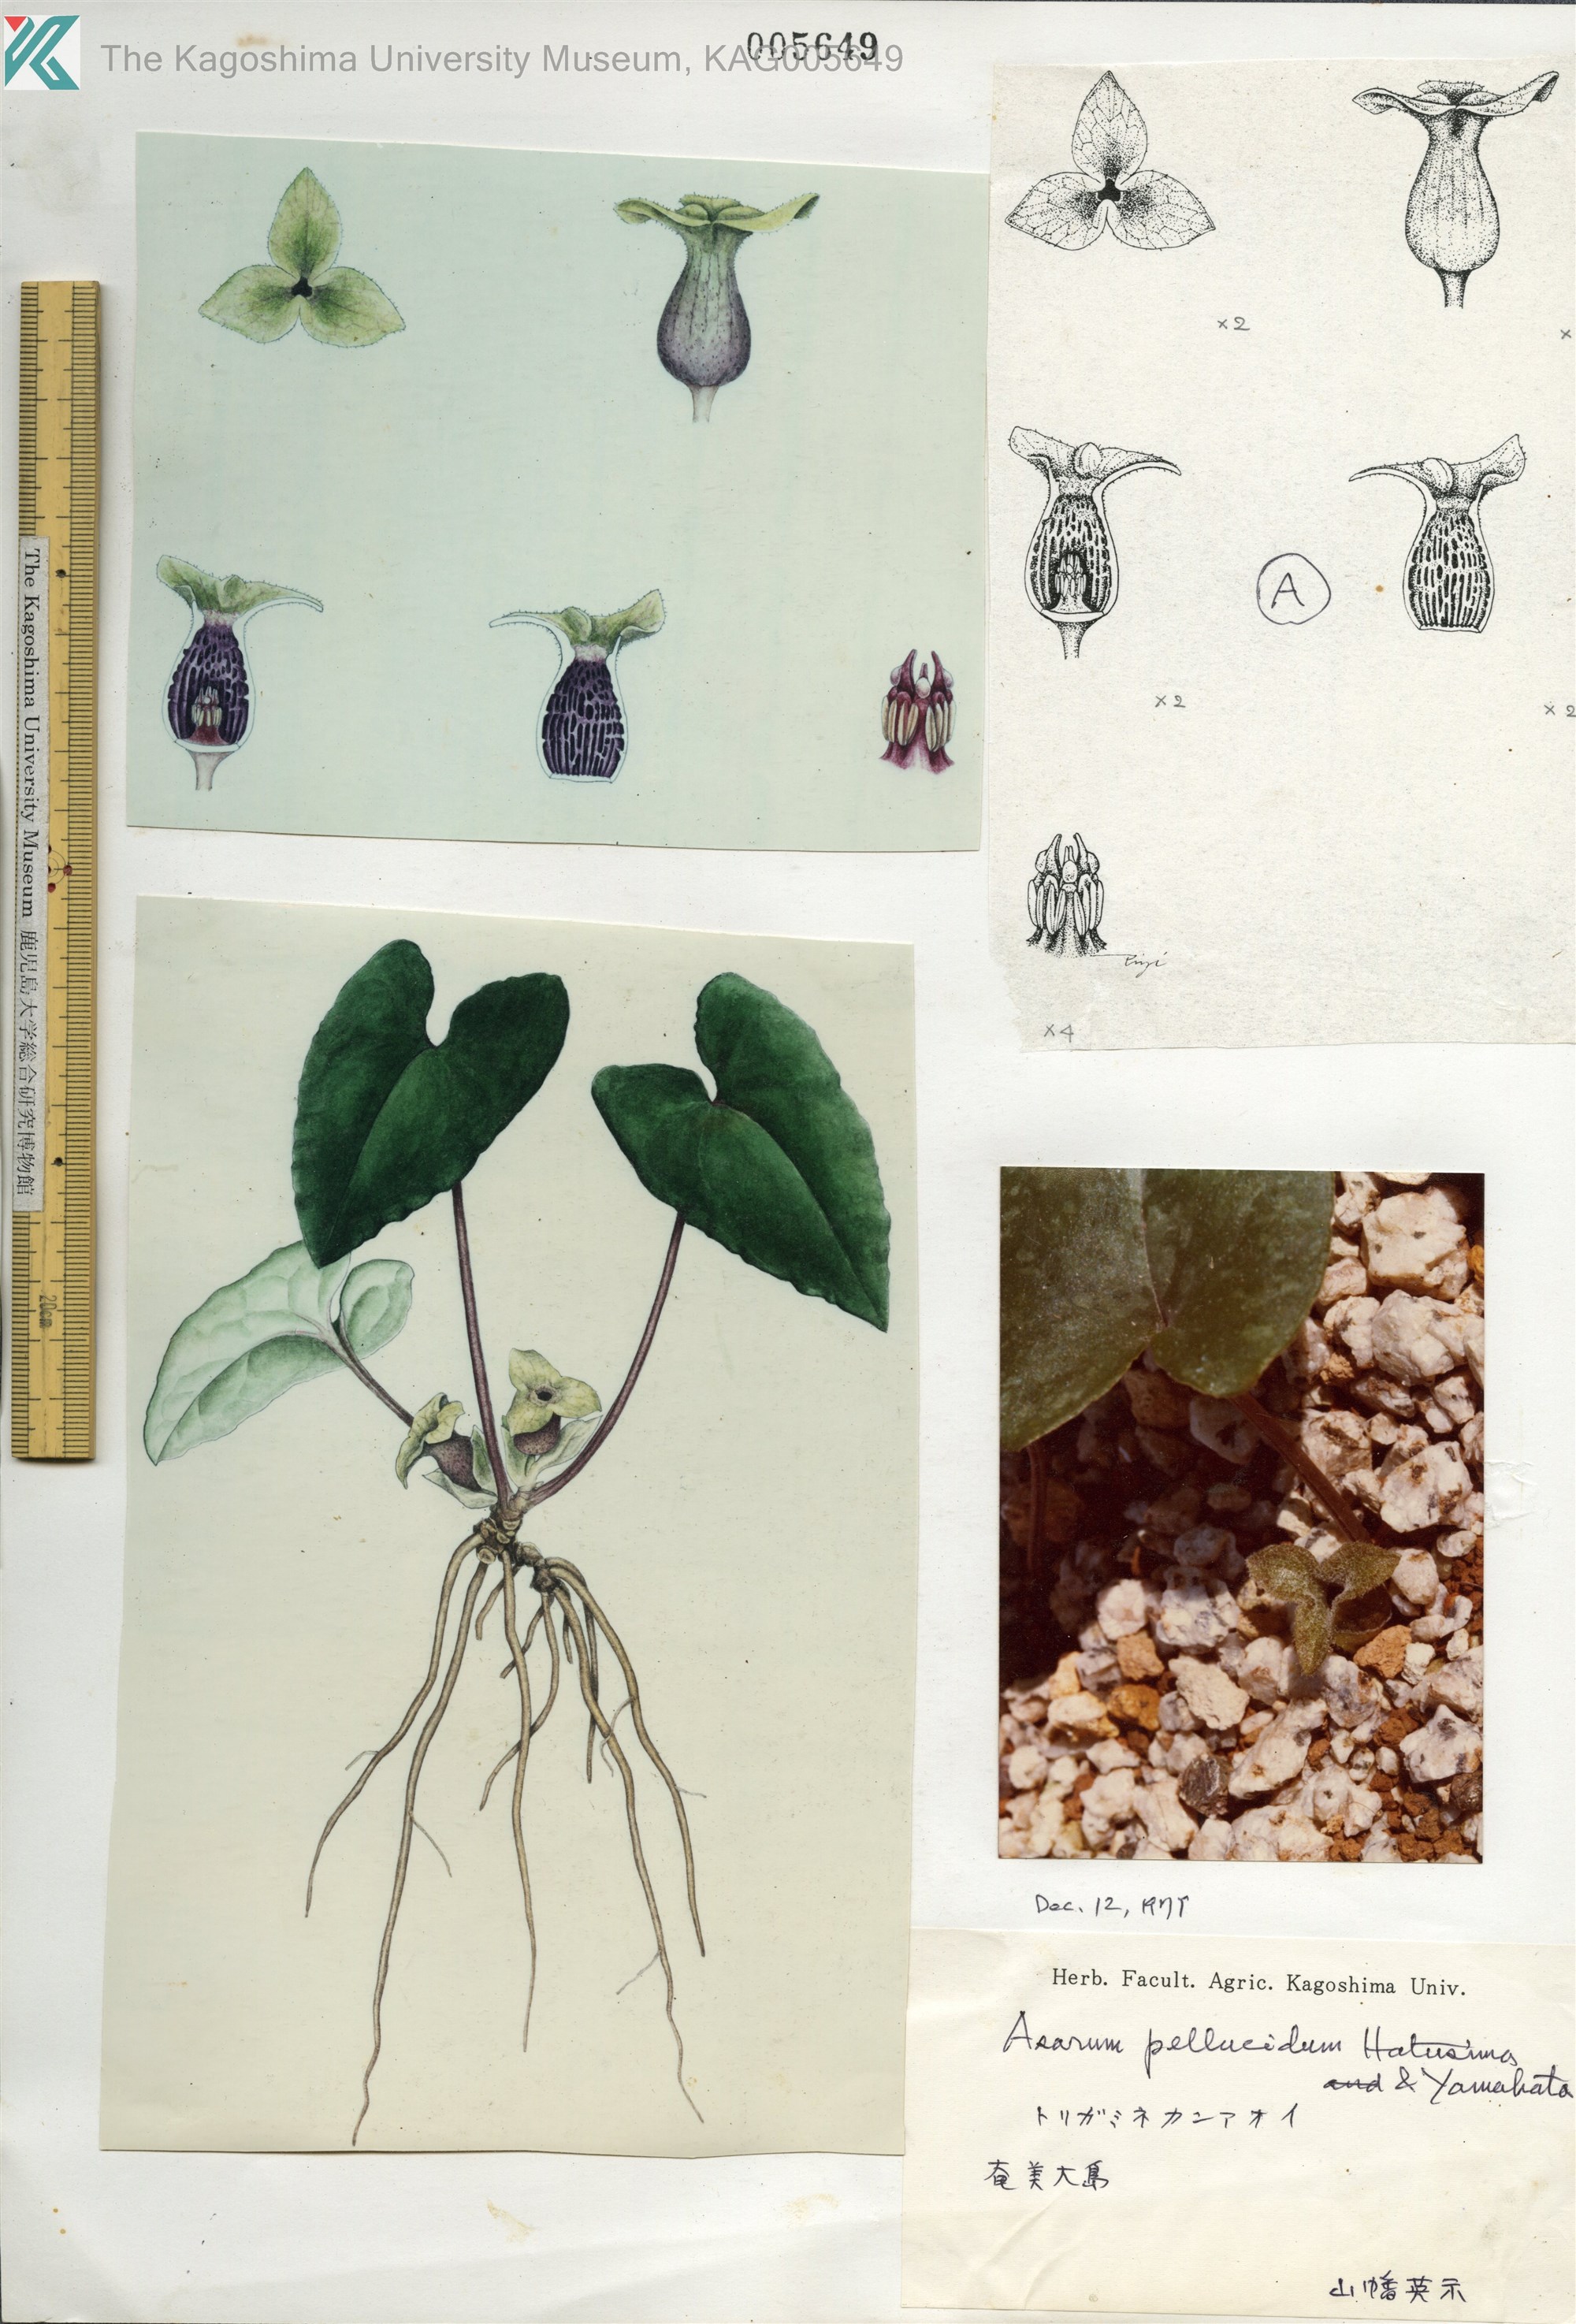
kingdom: Plantae
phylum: Tracheophyta
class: Magnoliopsida
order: Piperales
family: Aristolochiaceae
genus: Asarum
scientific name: Asarum pellucidum
